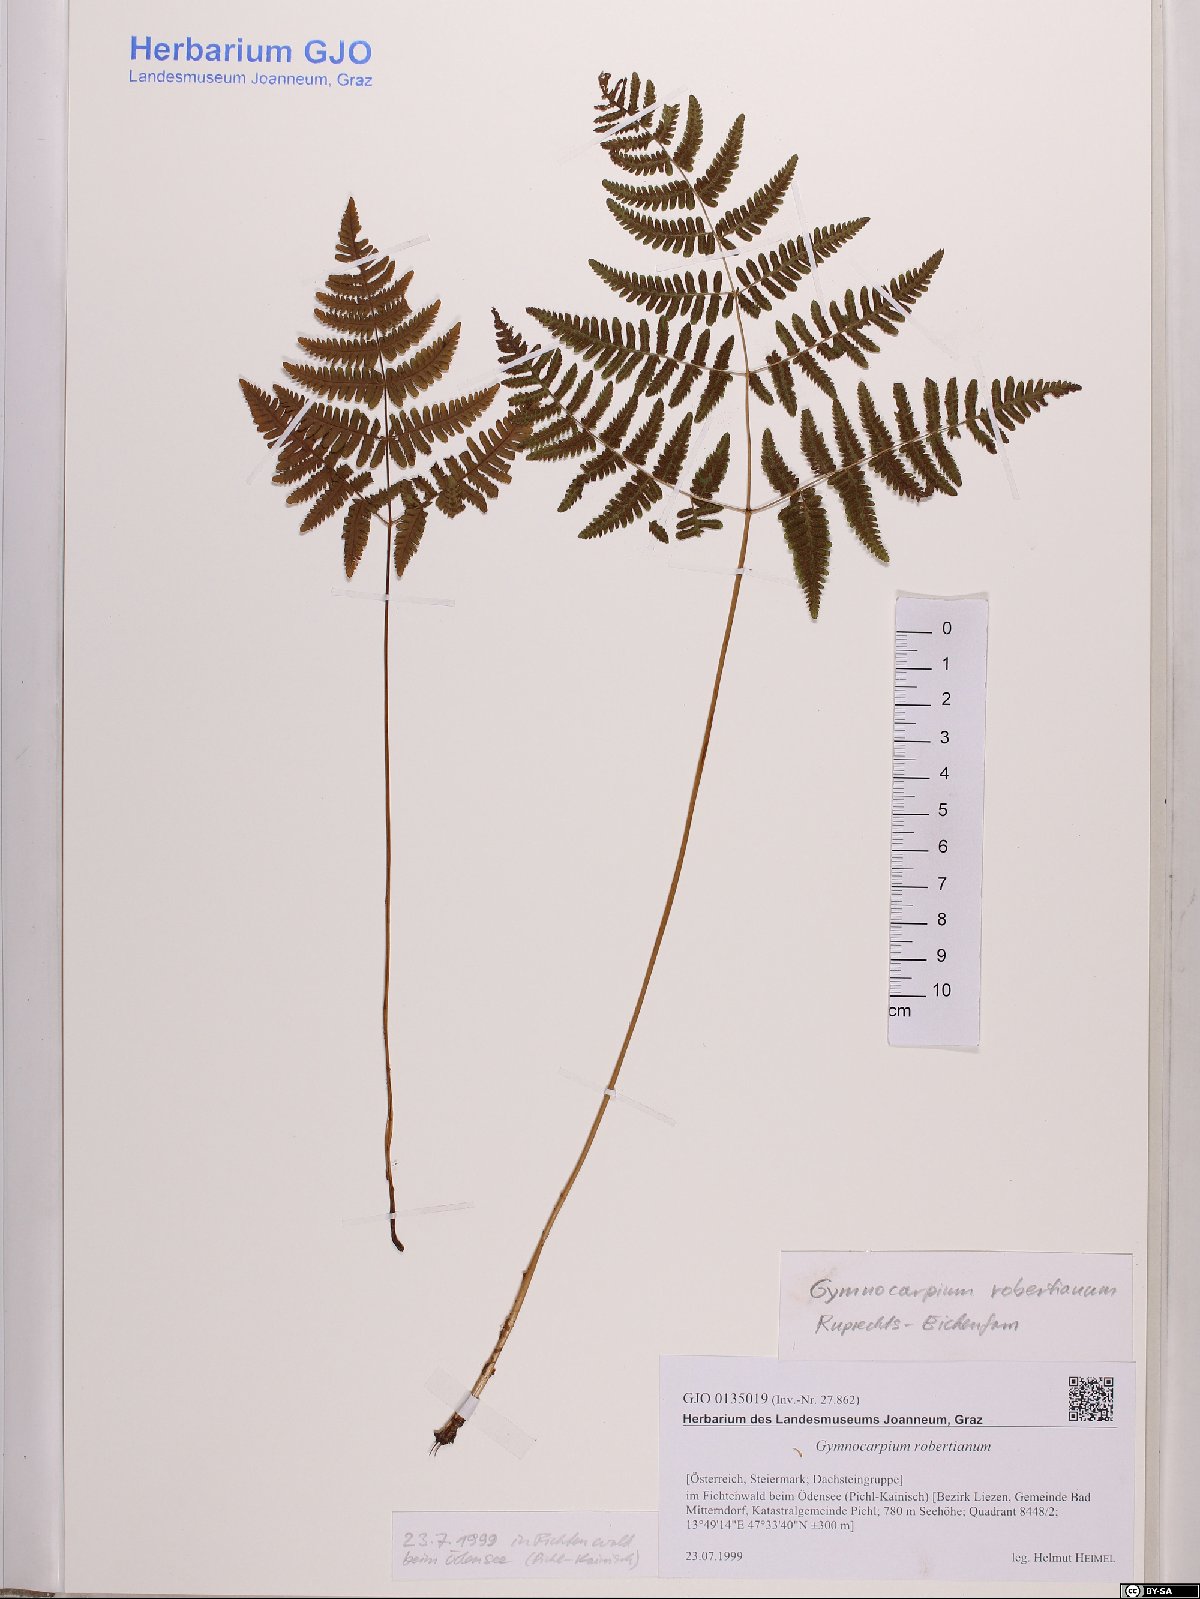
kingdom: Plantae
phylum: Tracheophyta
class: Polypodiopsida
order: Polypodiales
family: Cystopteridaceae
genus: Gymnocarpium
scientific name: Gymnocarpium robertianum
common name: Limestone fern
